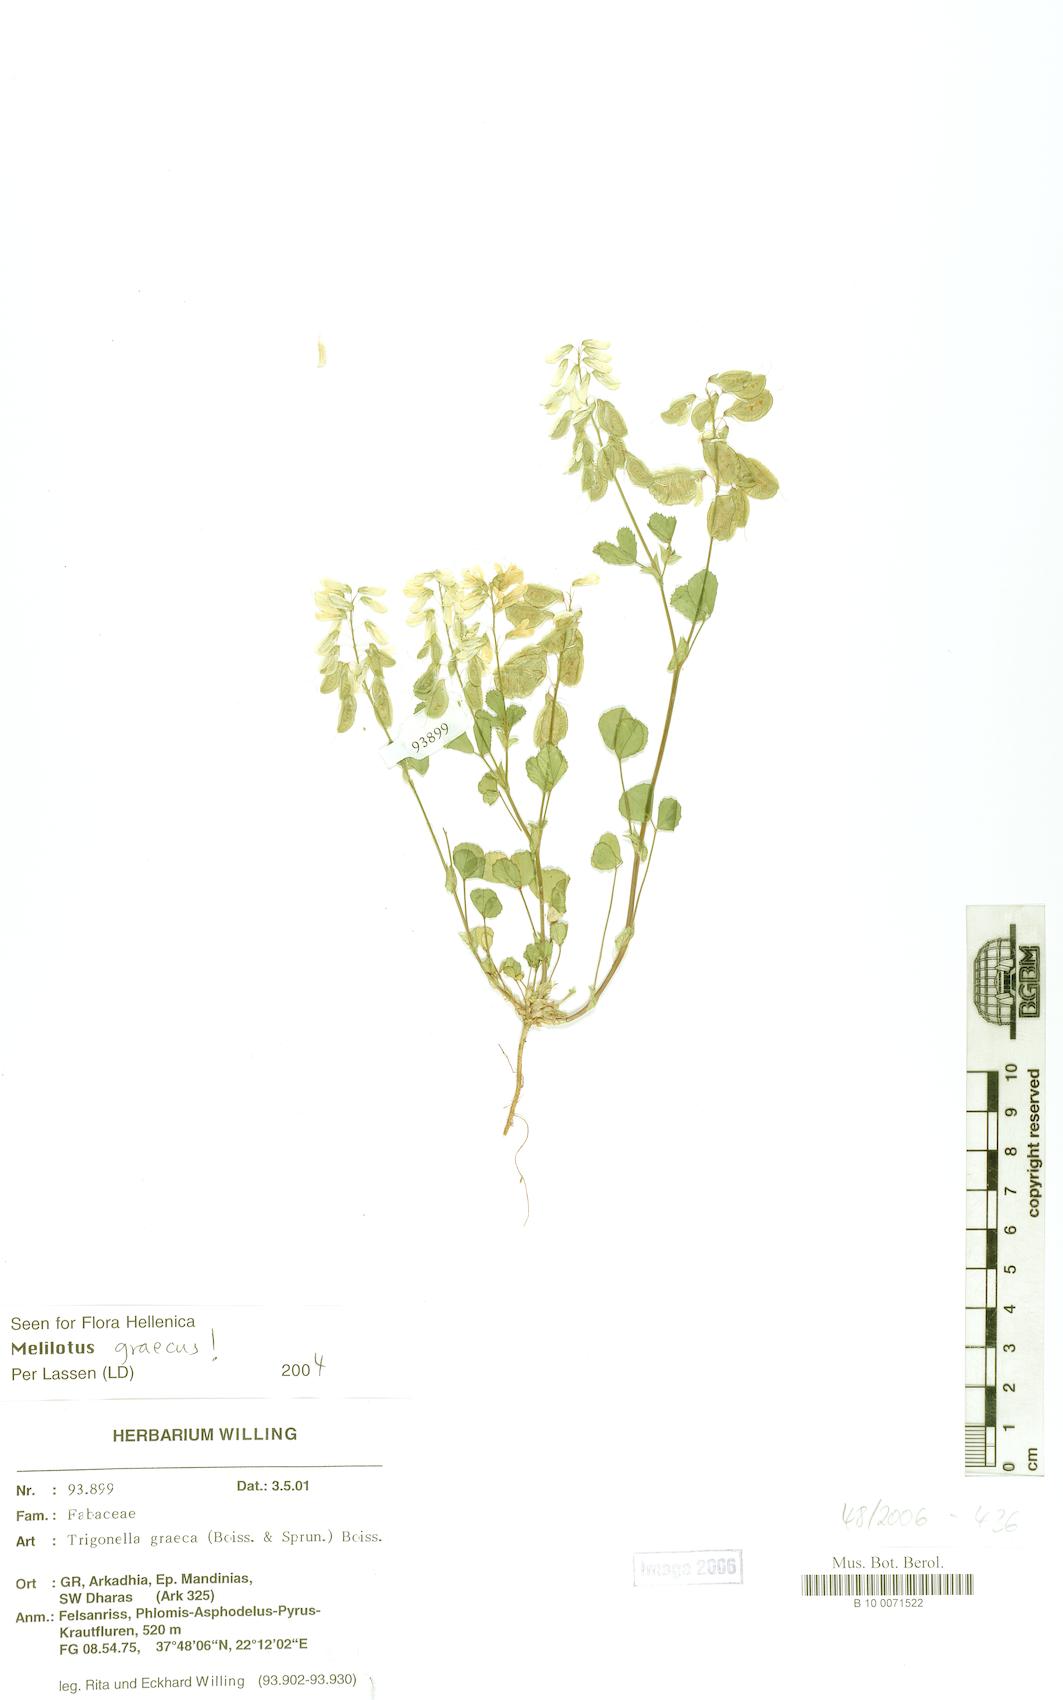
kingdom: Plantae
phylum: Tracheophyta
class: Magnoliopsida
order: Fabales
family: Fabaceae
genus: Trigonella
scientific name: Trigonella graeca
